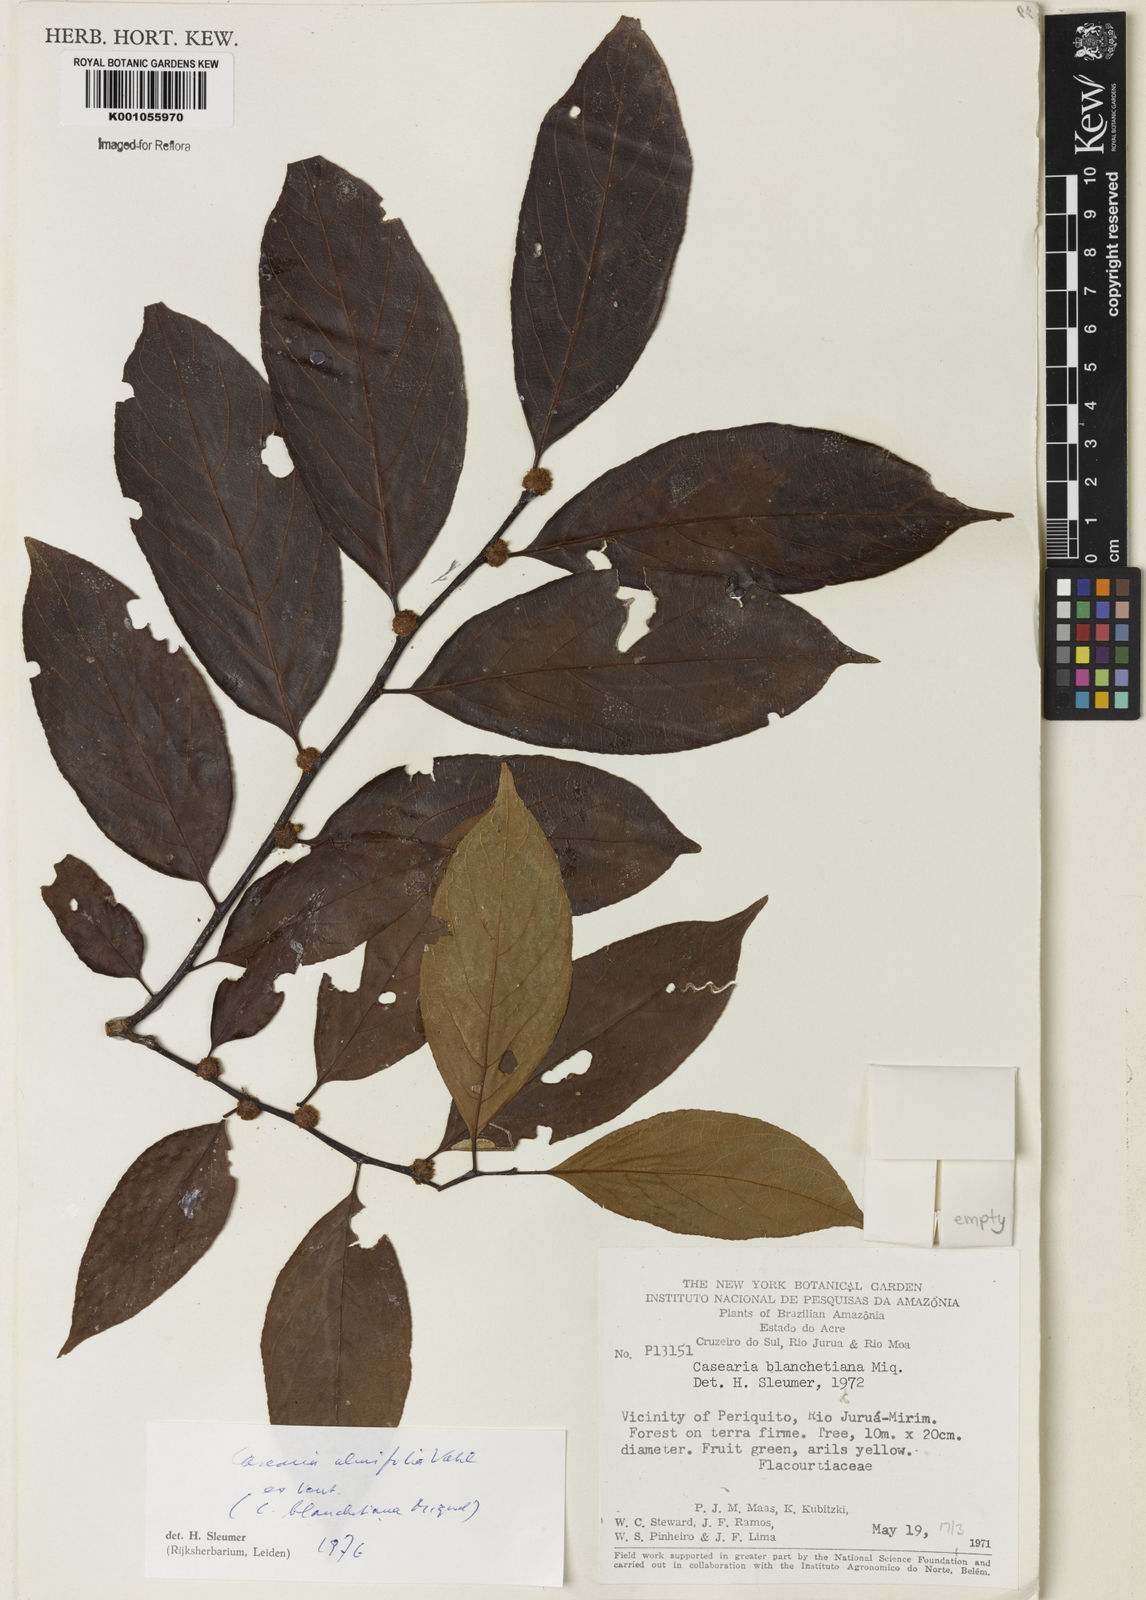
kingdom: Plantae
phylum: Tracheophyta
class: Magnoliopsida
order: Malpighiales
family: Salicaceae
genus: Casearia
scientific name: Casearia ulmifolia
